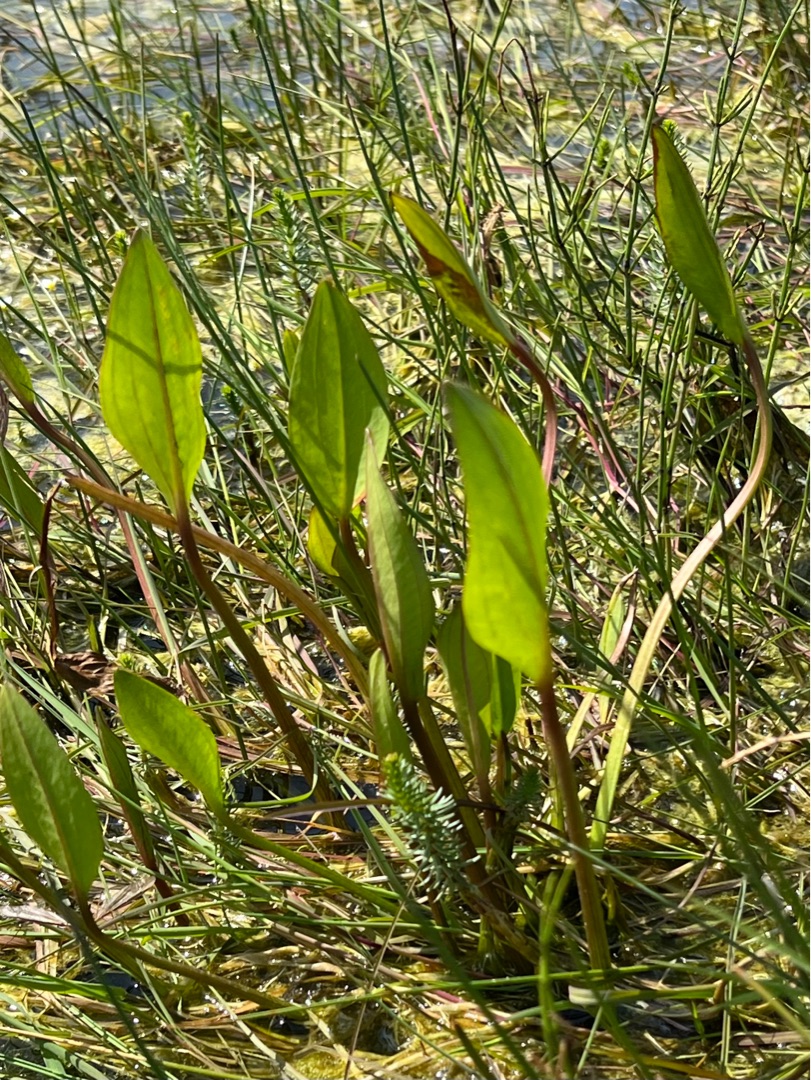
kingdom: Plantae
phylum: Tracheophyta
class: Liliopsida
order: Alismatales
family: Alismataceae
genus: Alisma
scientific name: Alisma plantago-aquatica
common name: Vejbred-skeblad
